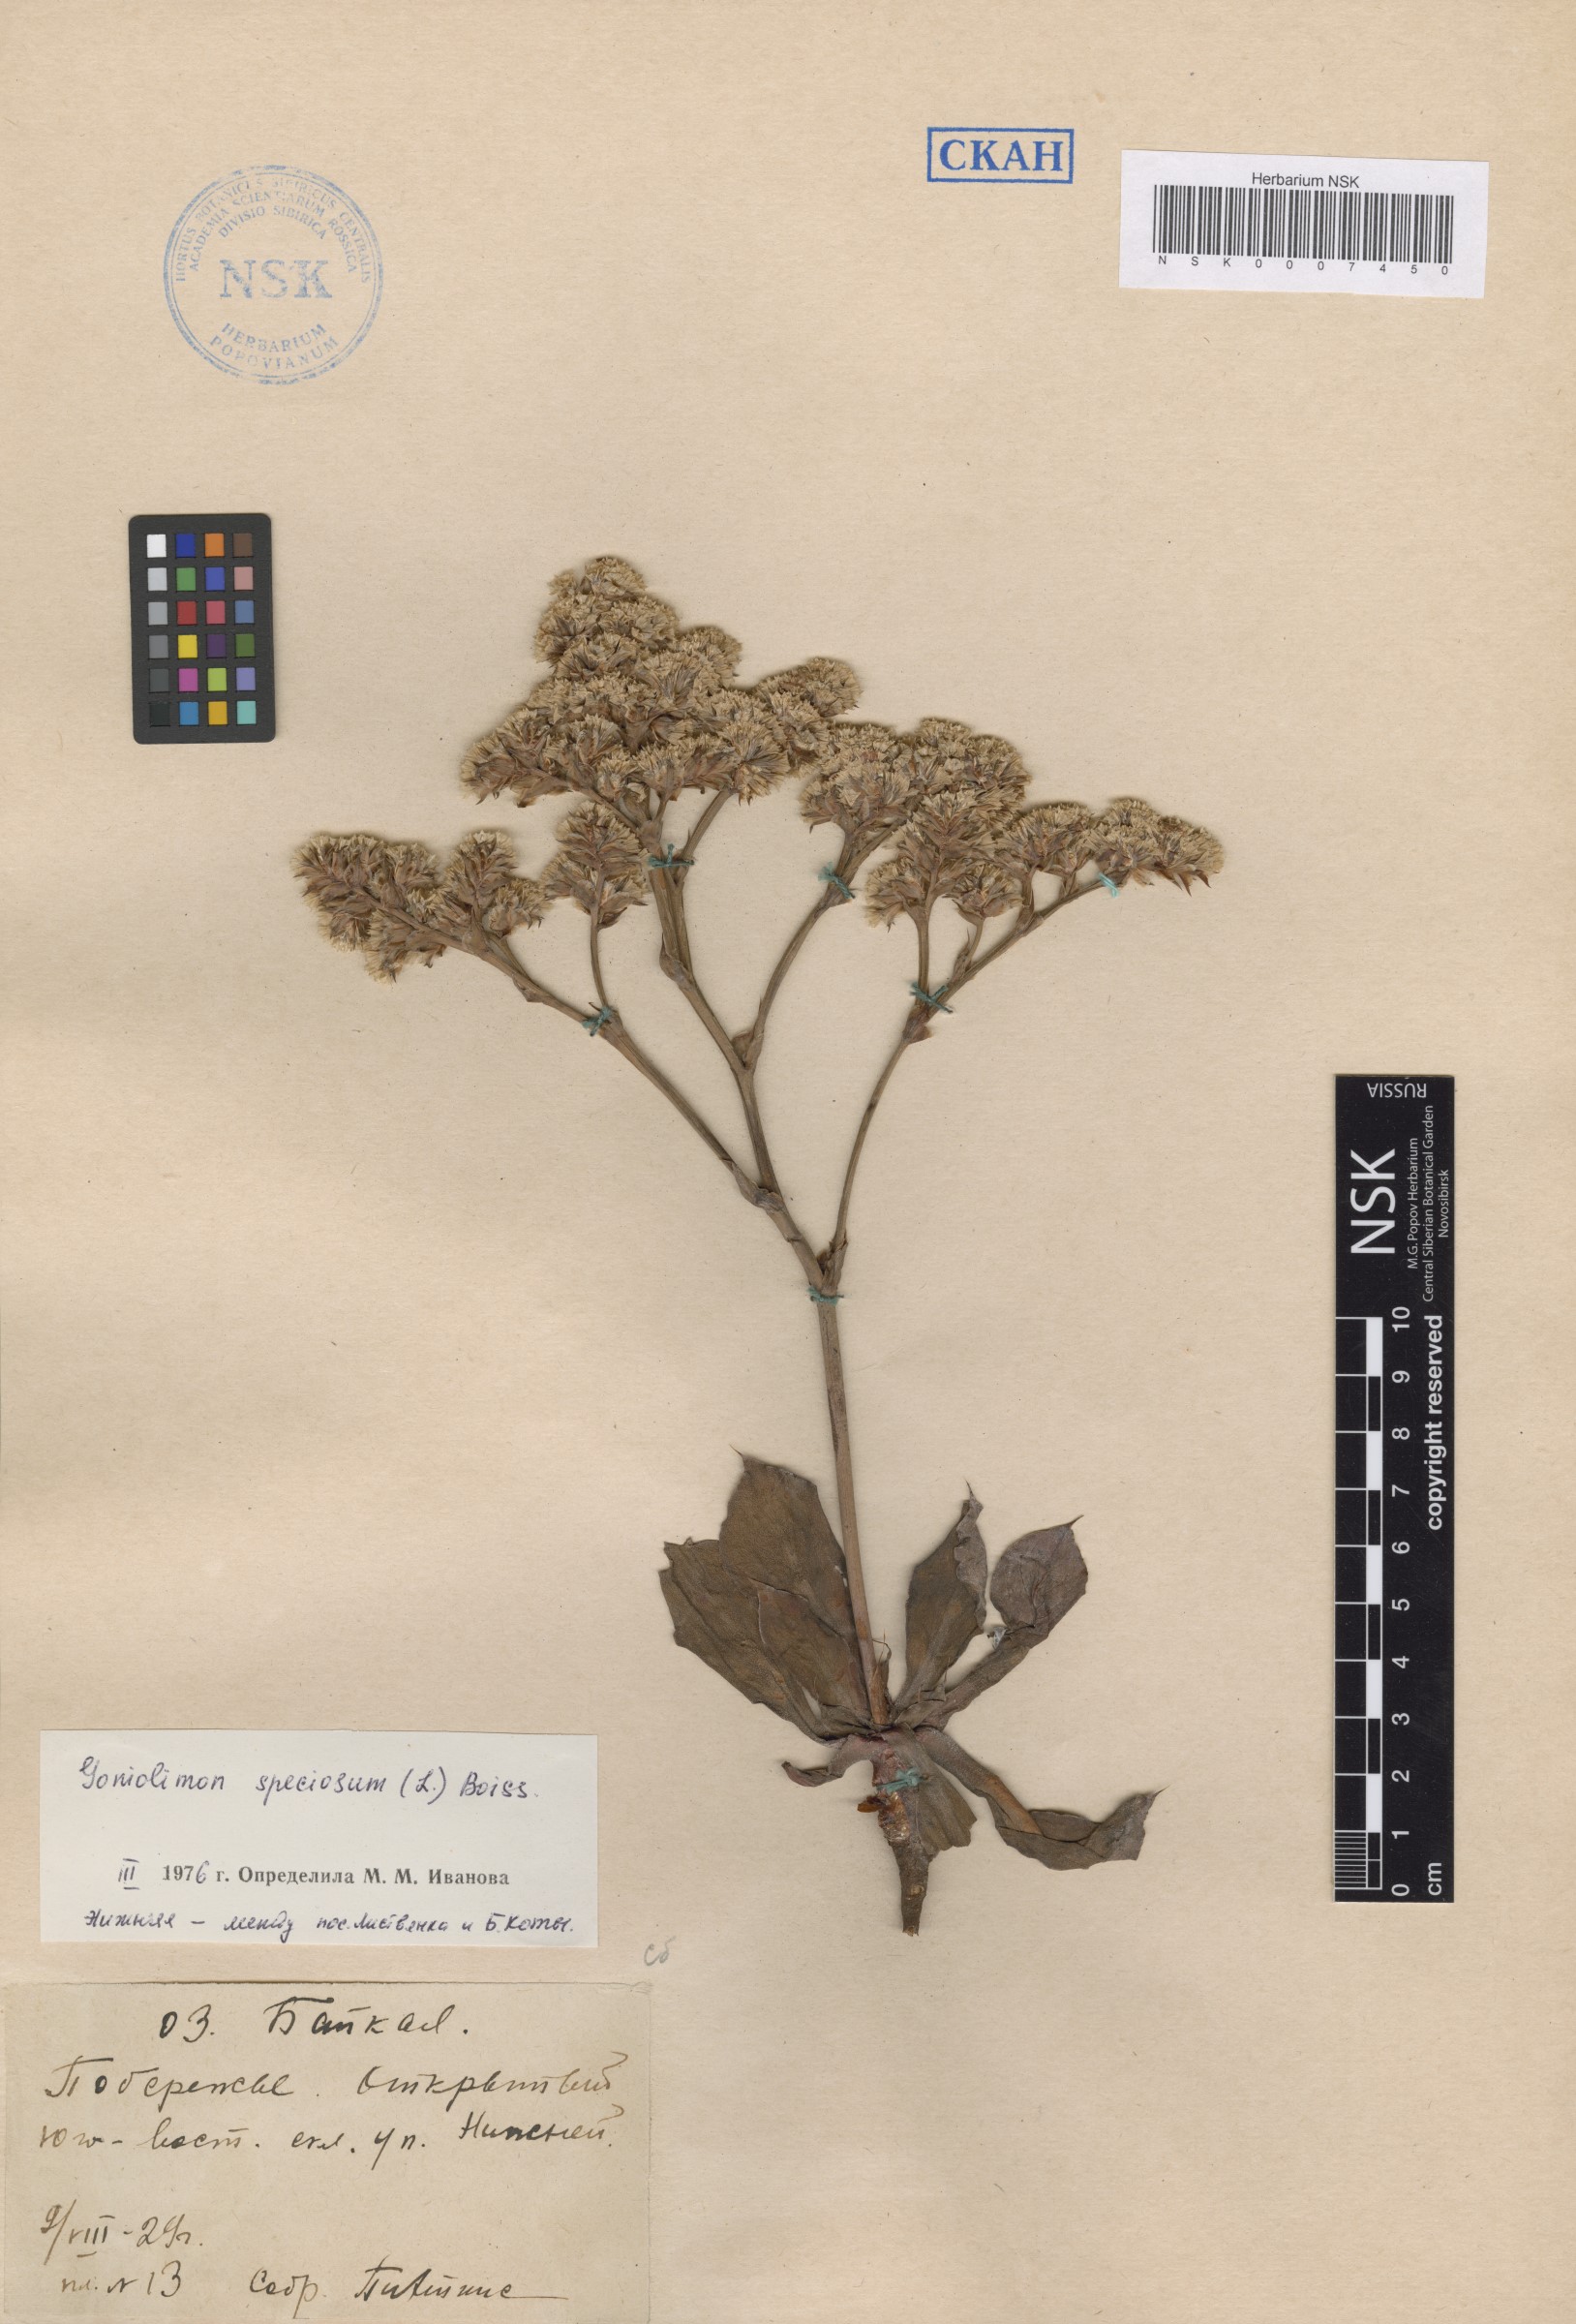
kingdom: Plantae
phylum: Tracheophyta
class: Magnoliopsida
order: Caryophyllales
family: Plumbaginaceae
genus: Goniolimon
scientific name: Goniolimon speciosum
